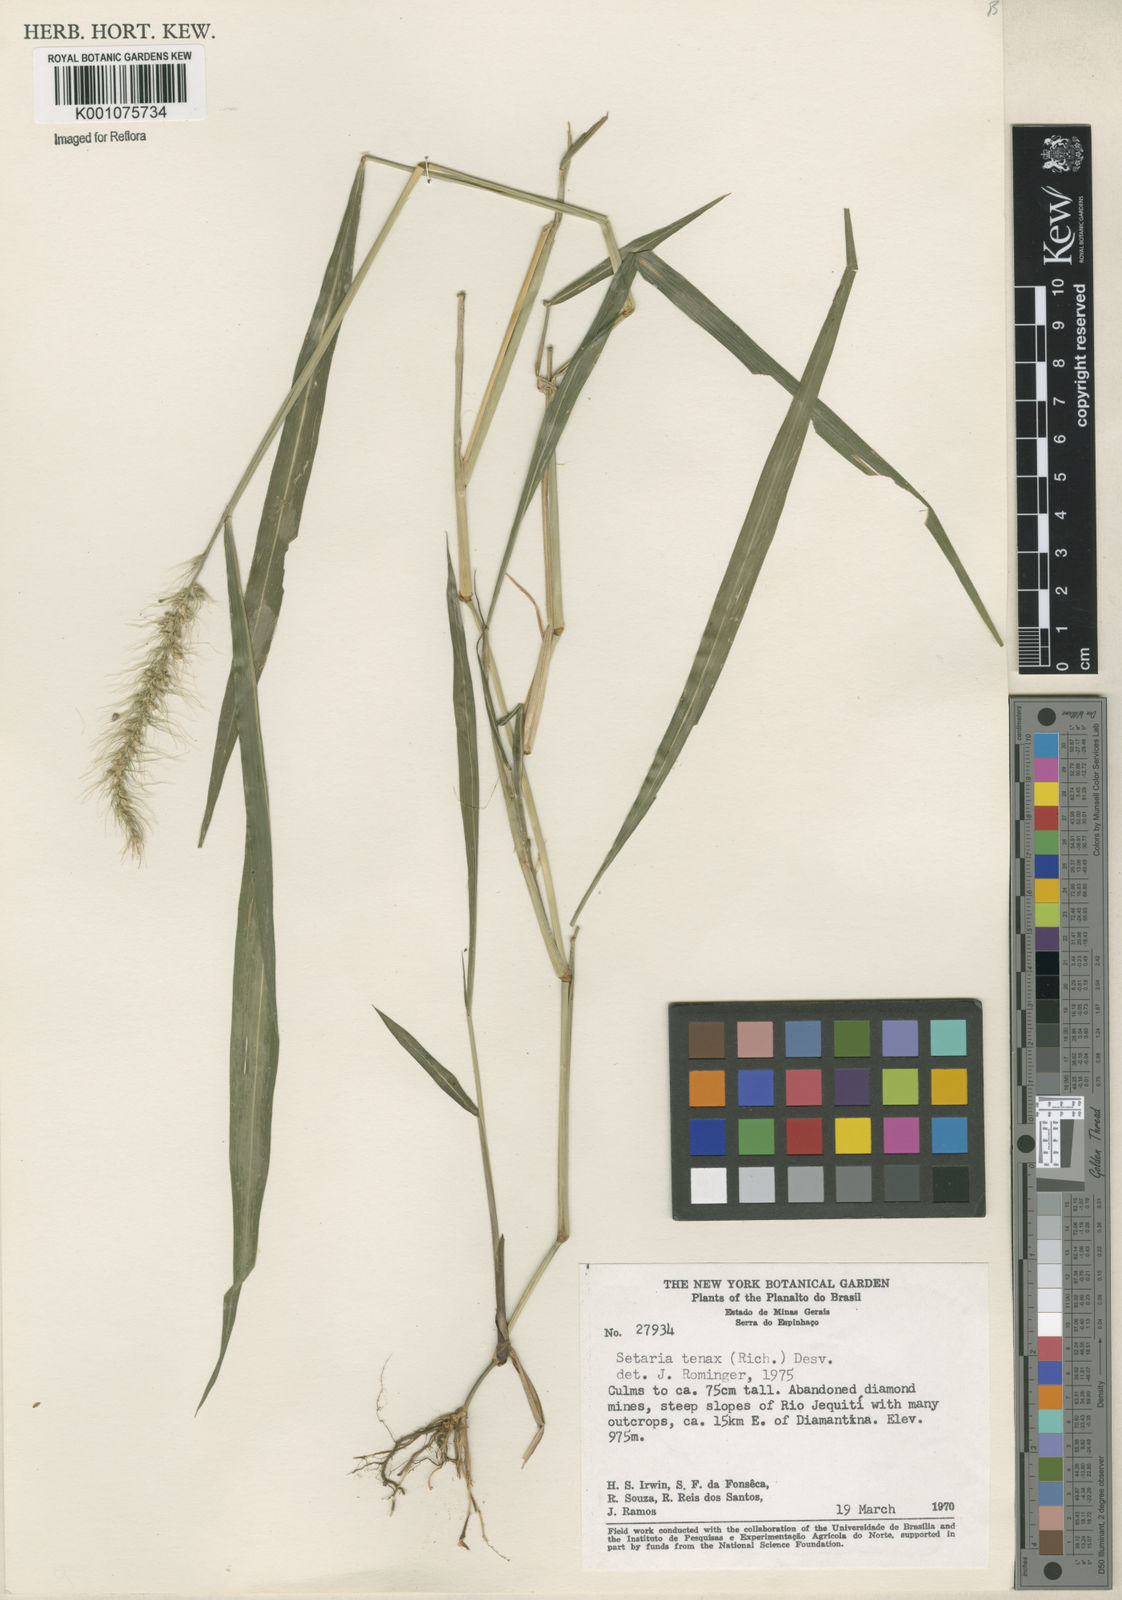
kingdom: Plantae
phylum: Tracheophyta
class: Liliopsida
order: Poales
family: Poaceae
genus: Setaria
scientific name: Setaria tenax
